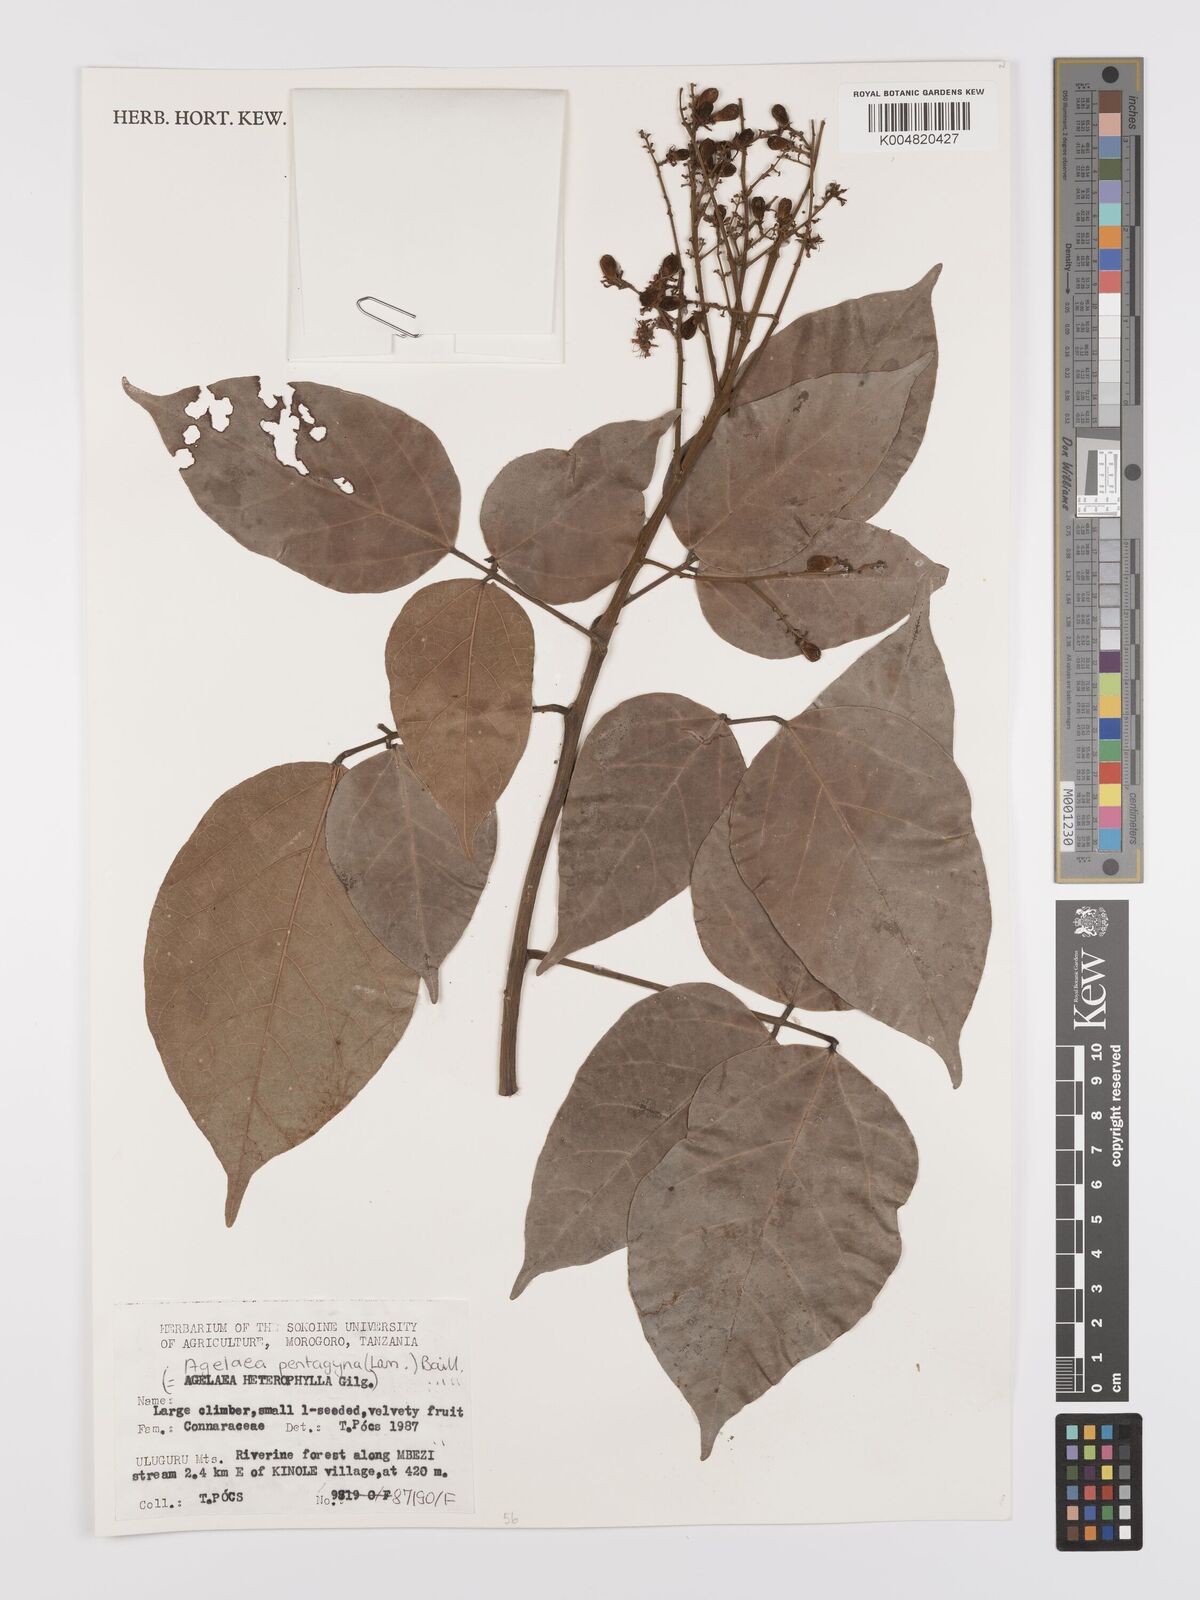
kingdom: Plantae
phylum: Tracheophyta
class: Magnoliopsida
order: Oxalidales
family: Connaraceae
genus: Agelaea
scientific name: Agelaea pentagyna
